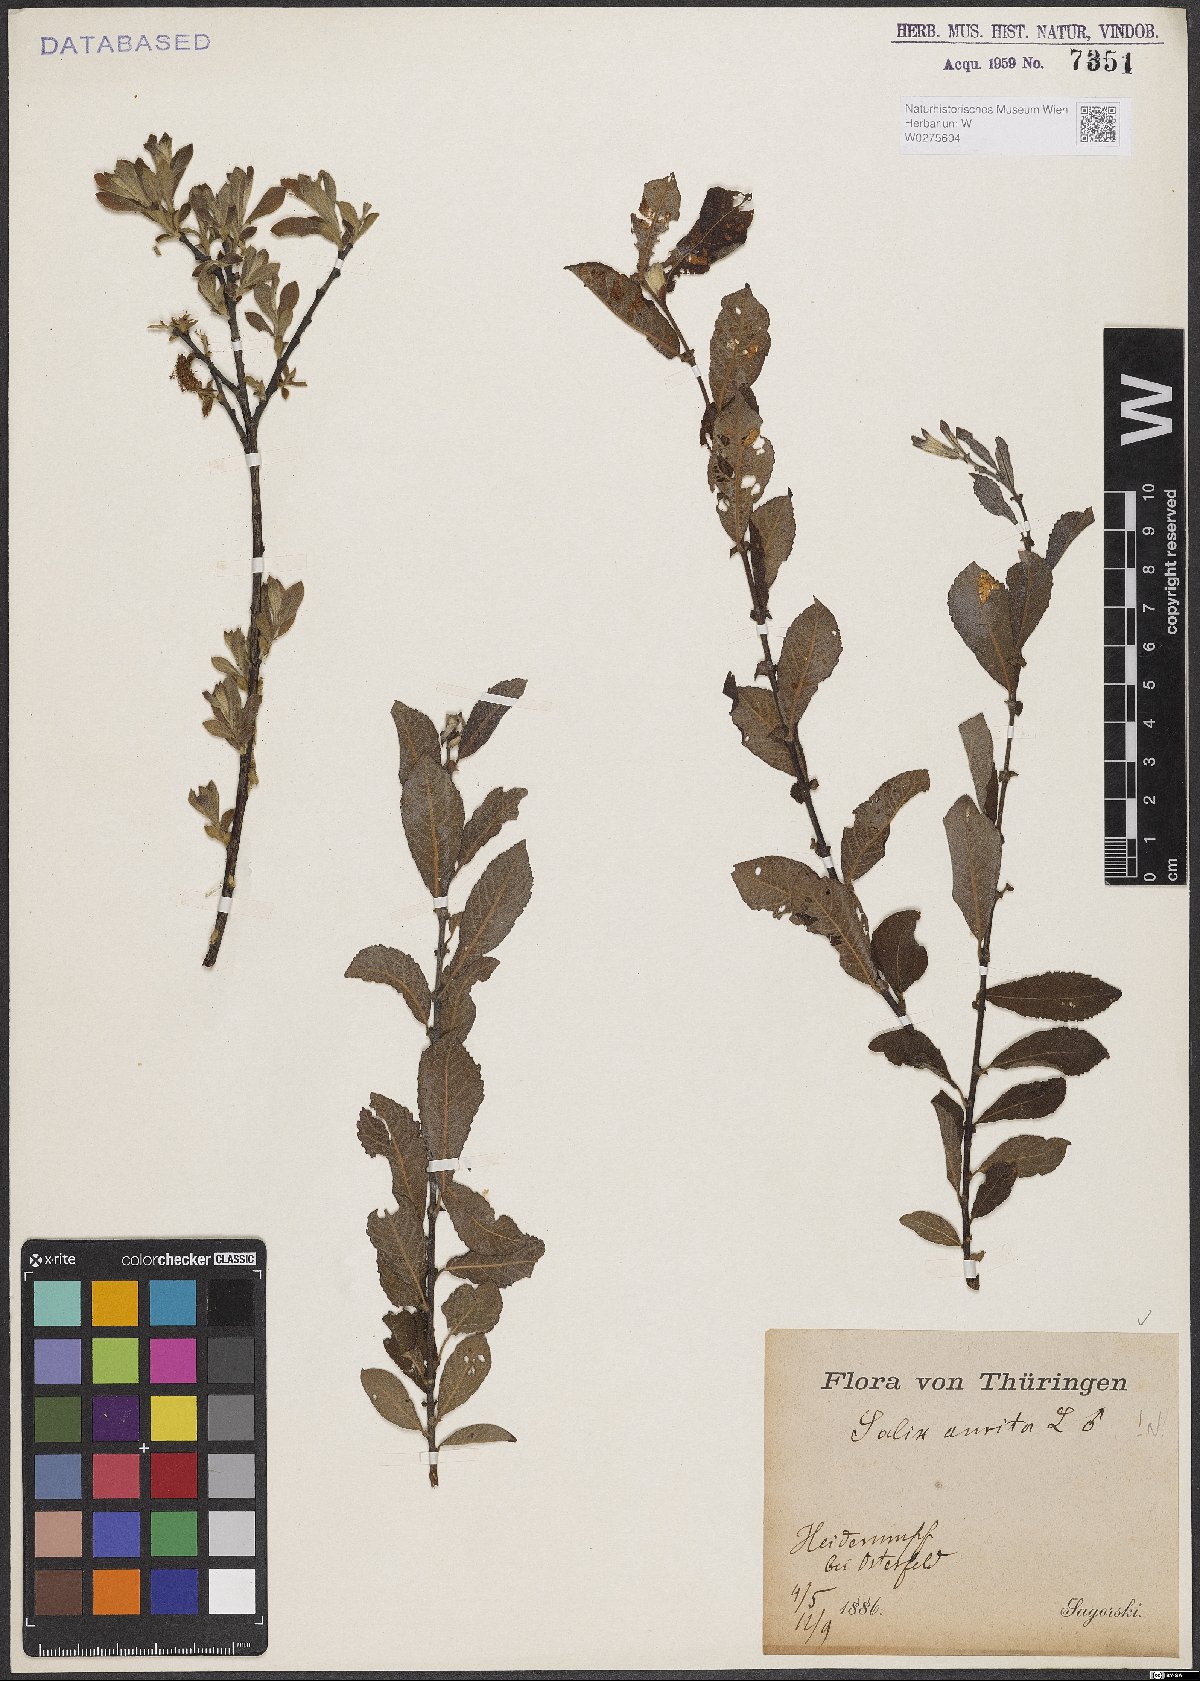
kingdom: Plantae
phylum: Tracheophyta
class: Magnoliopsida
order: Malpighiales
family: Salicaceae
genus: Salix
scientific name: Salix aurita
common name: Eared willow
